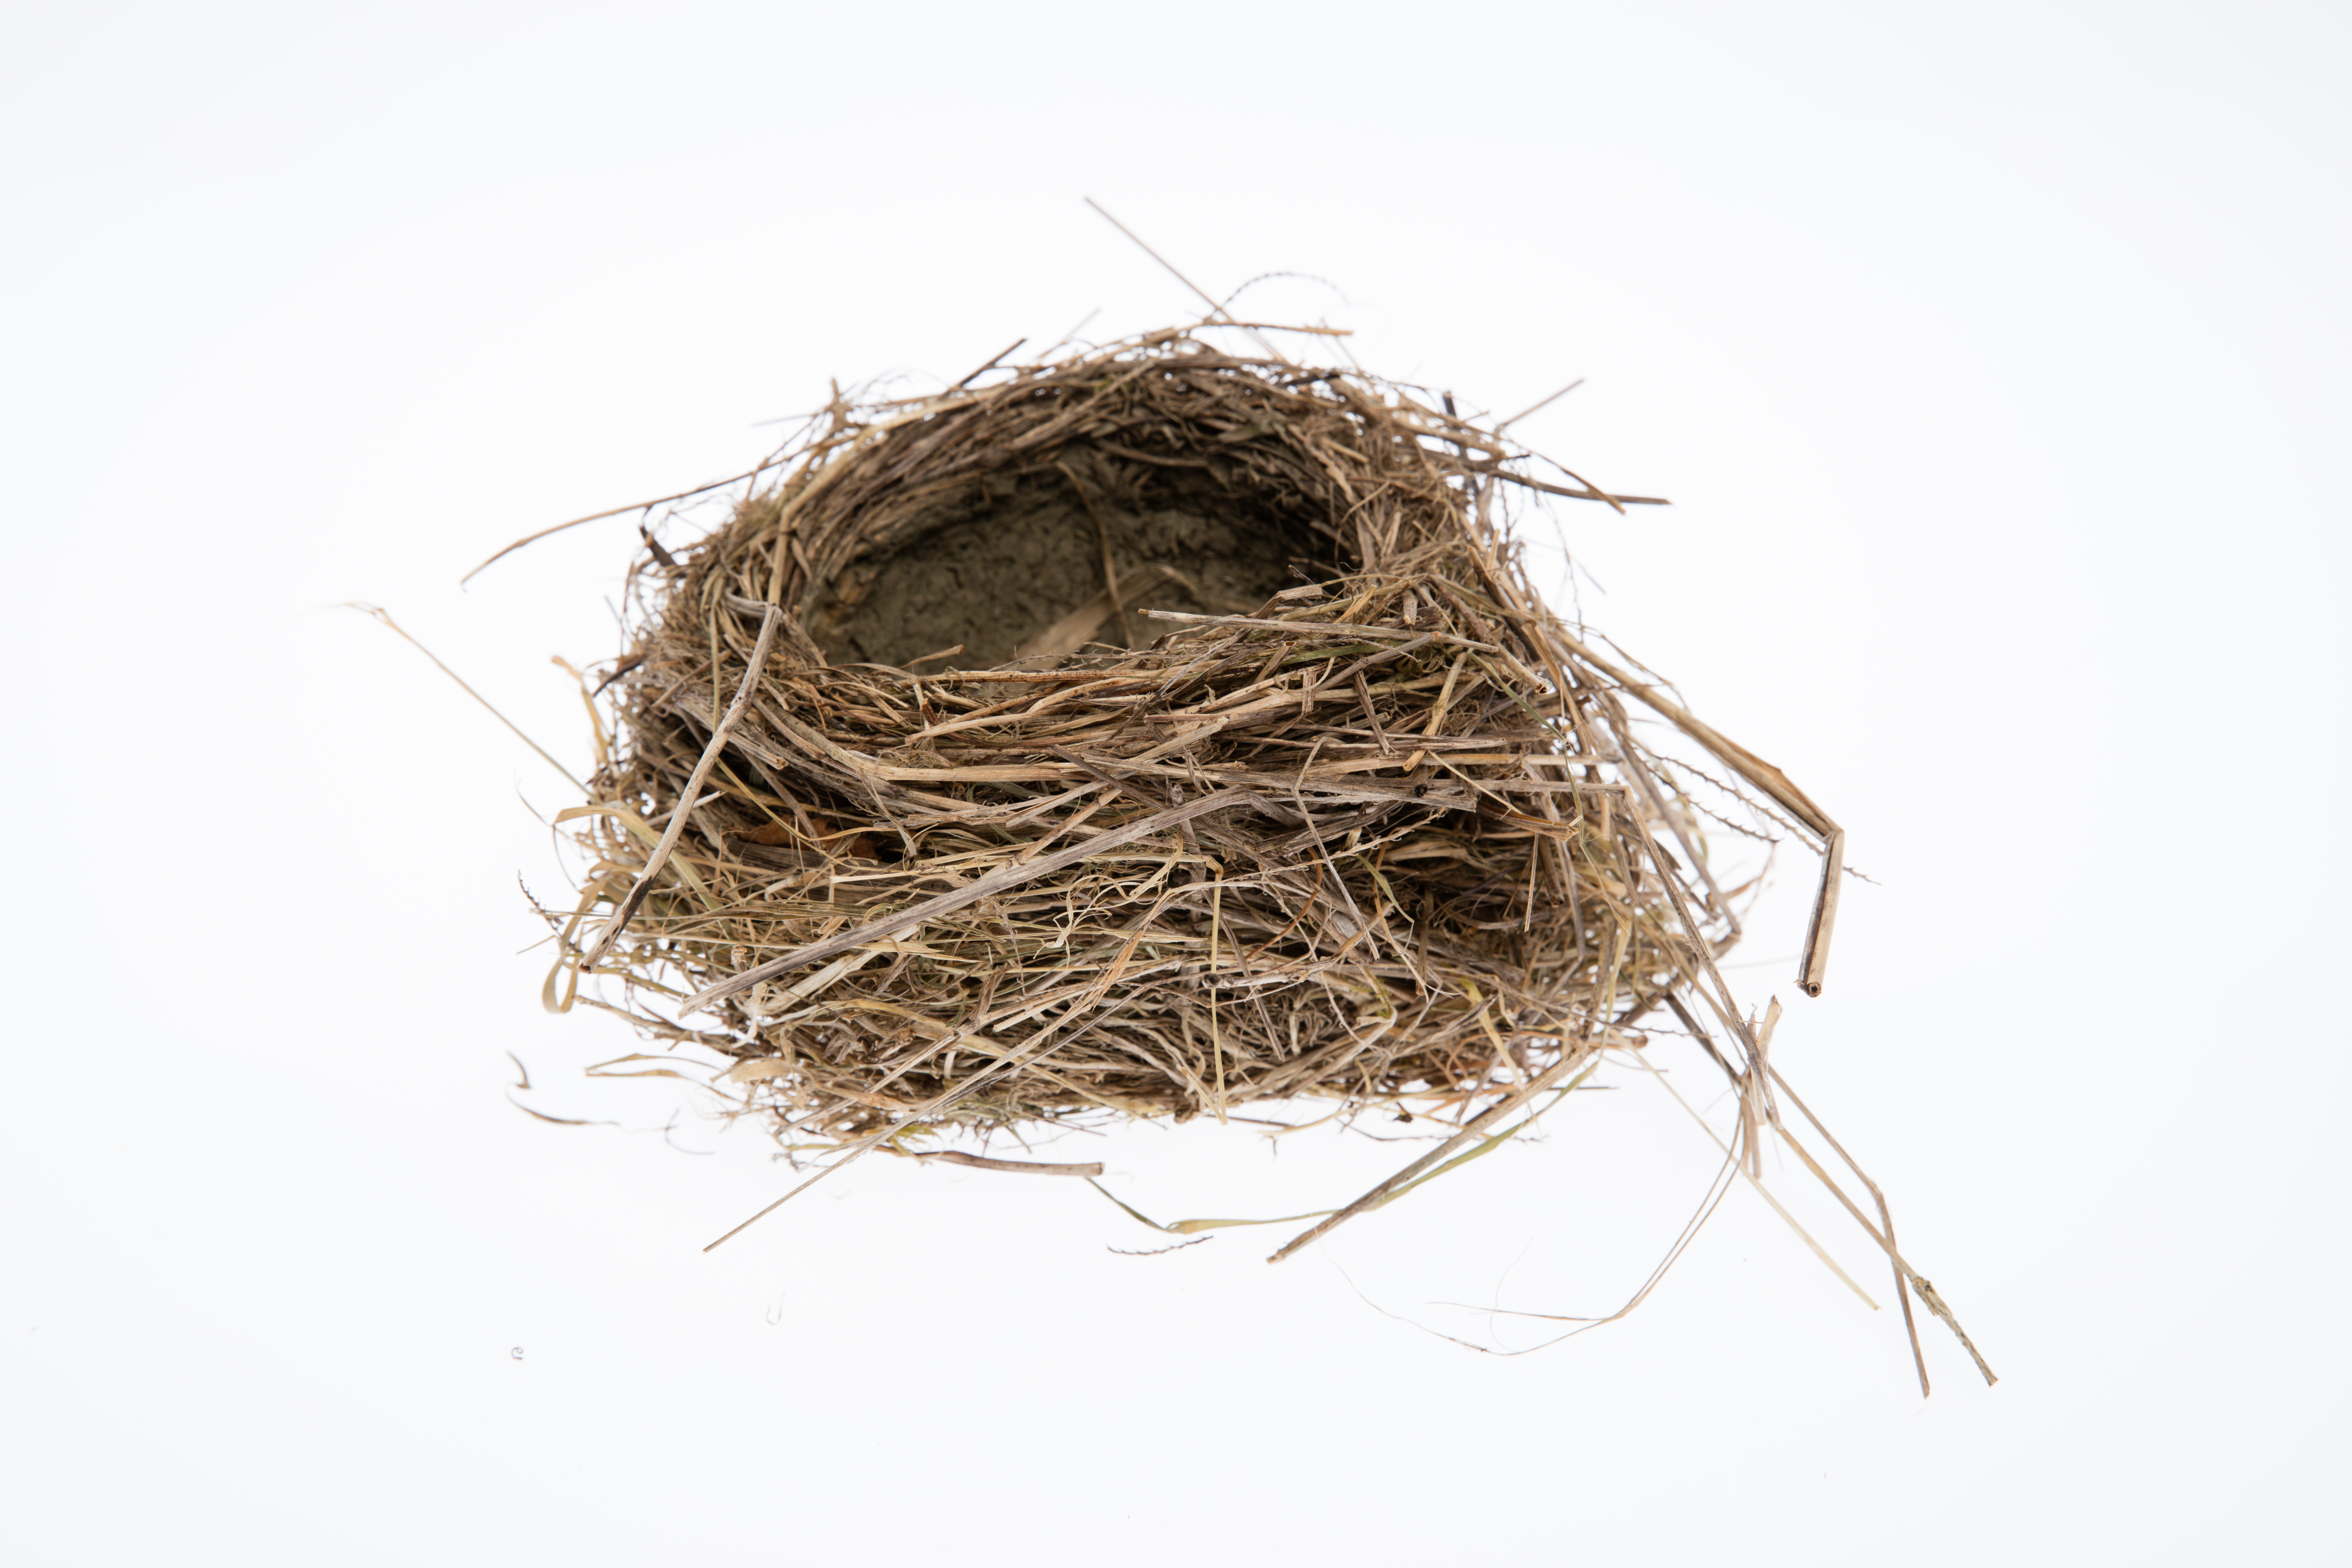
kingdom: Animalia
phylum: Chordata
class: Aves
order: Passeriformes
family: Turdidae
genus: Turdus
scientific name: Turdus philomelos
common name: Song thrush
